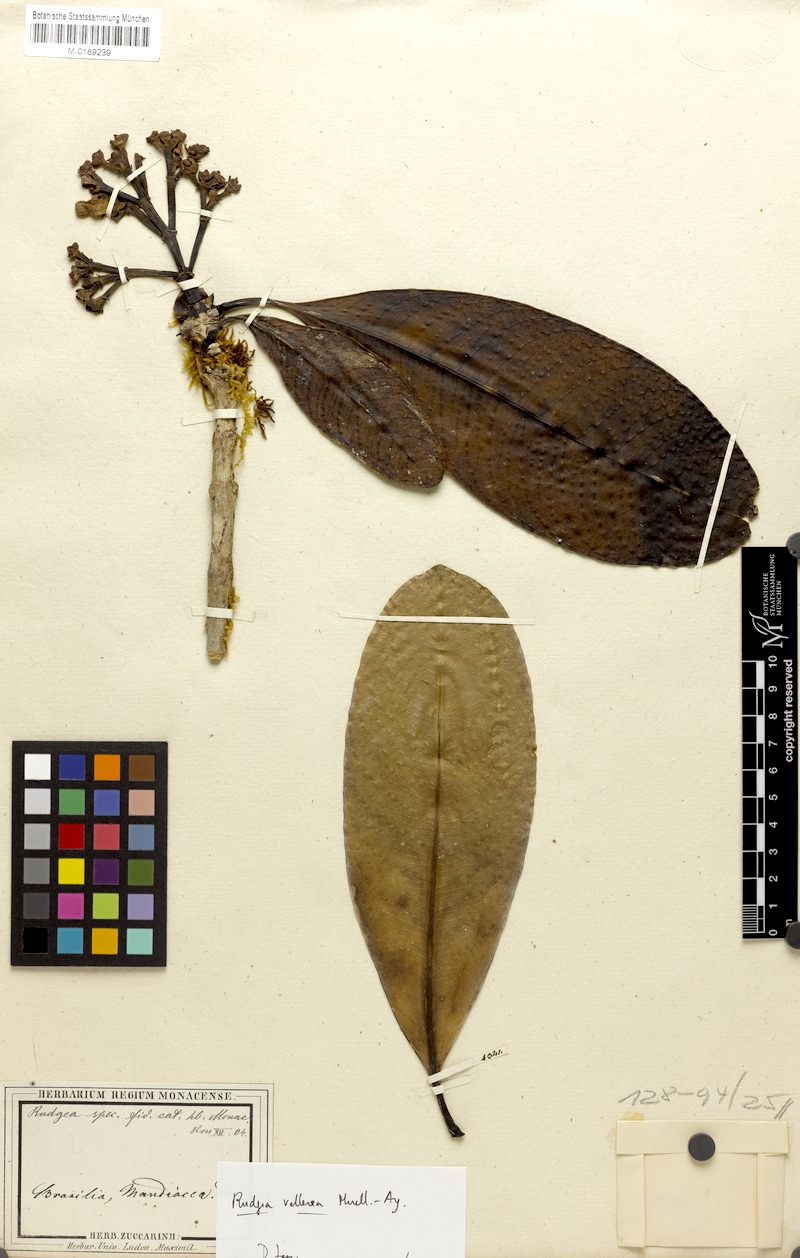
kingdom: Plantae
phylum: Tracheophyta
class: Magnoliopsida
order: Gentianales
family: Rubiaceae
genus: Rudgea
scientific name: Rudgea vellerea
